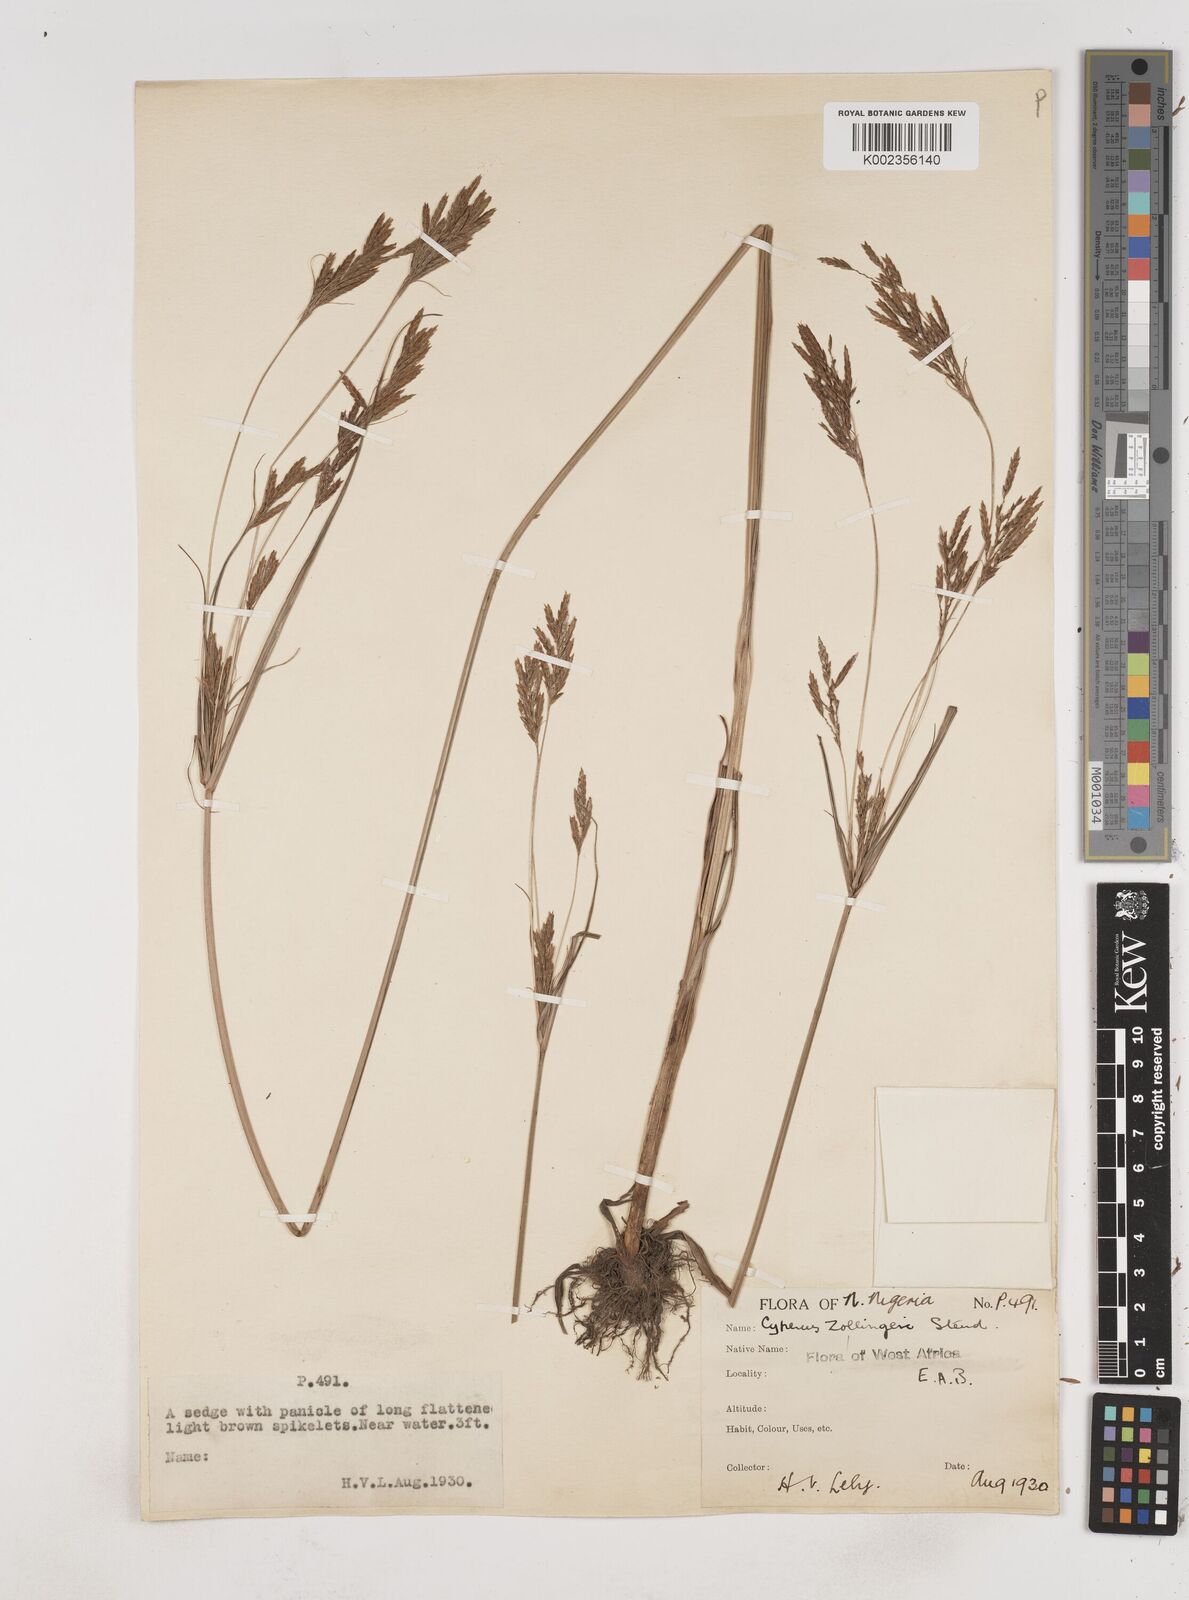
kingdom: Plantae
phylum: Tracheophyta
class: Liliopsida
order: Poales
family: Cyperaceae
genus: Cyperus
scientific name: Cyperus zollingeri
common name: Roadside flatsedge
